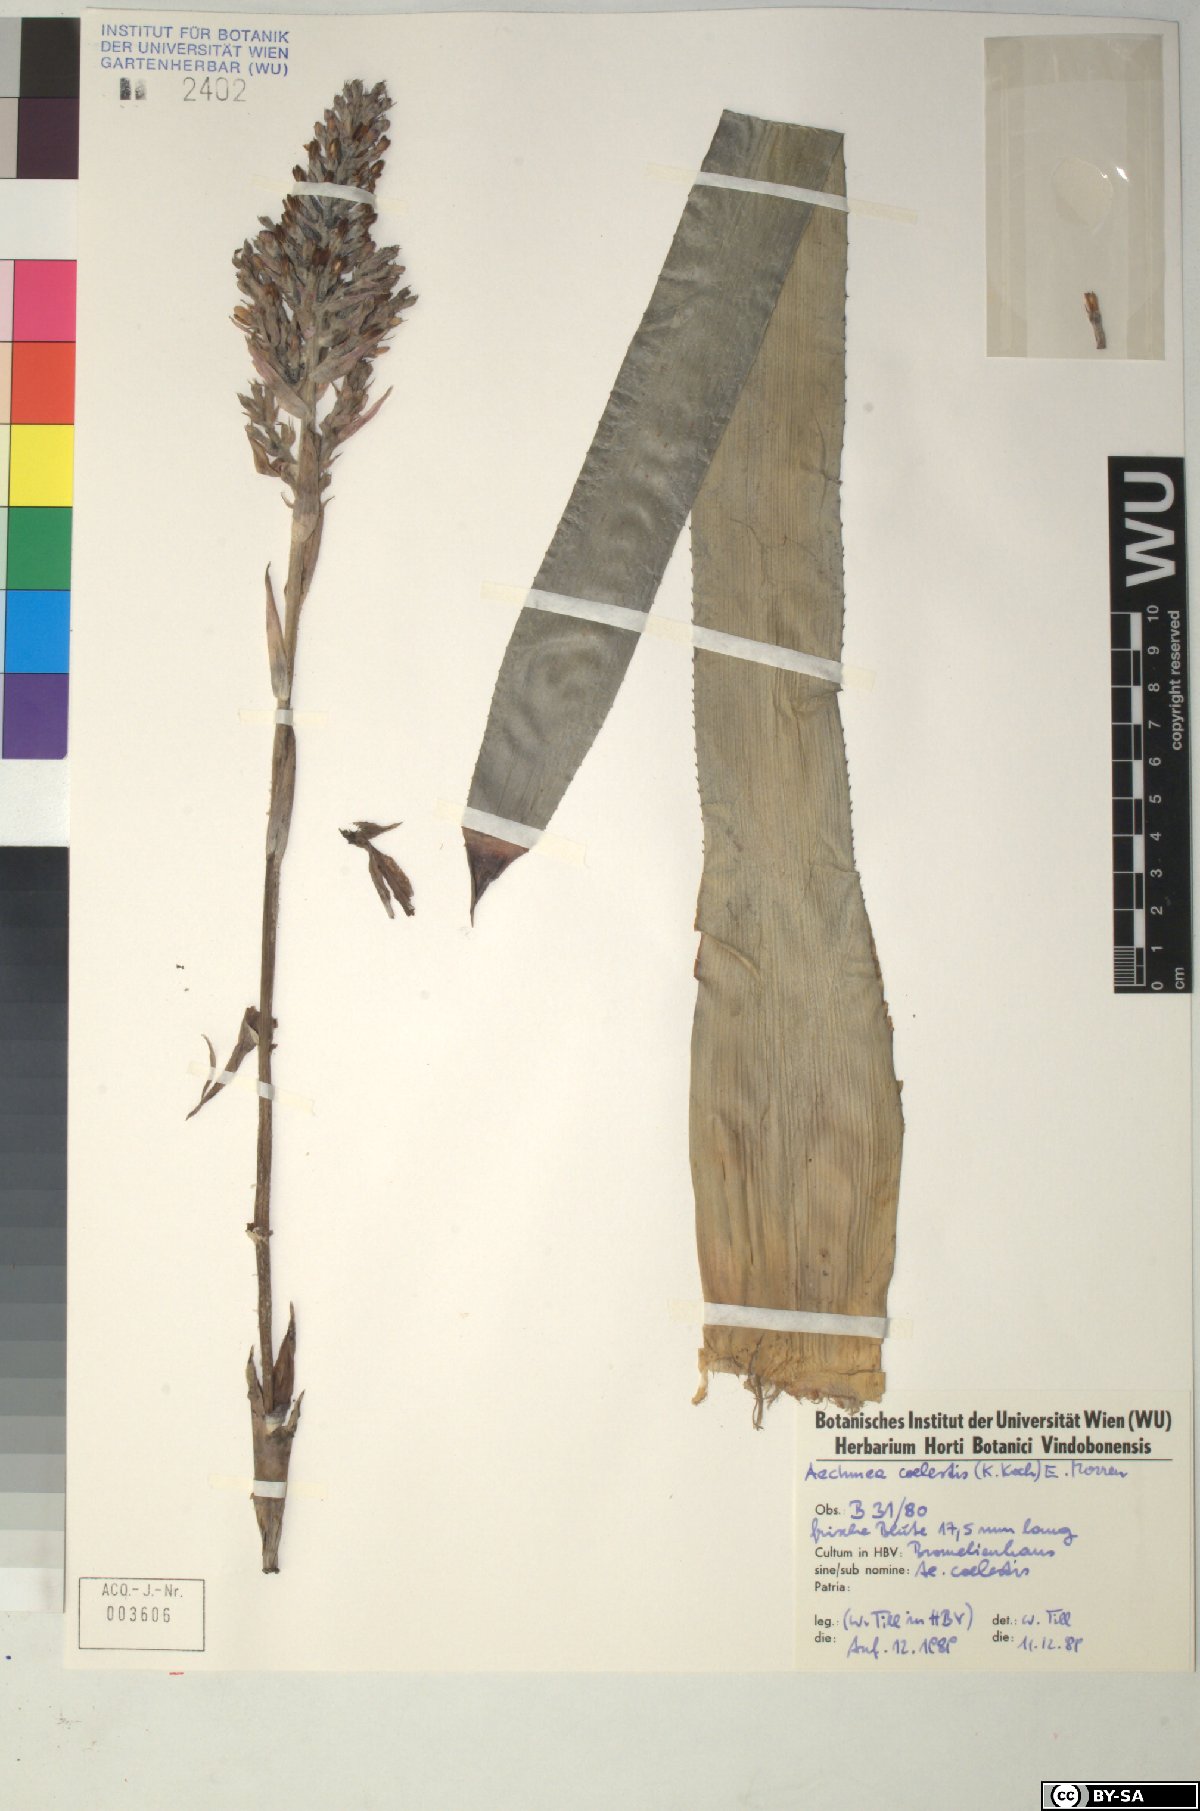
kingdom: Plantae
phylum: Tracheophyta
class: Liliopsida
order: Poales
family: Bromeliaceae
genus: Aechmea
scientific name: Aechmea coelestis
